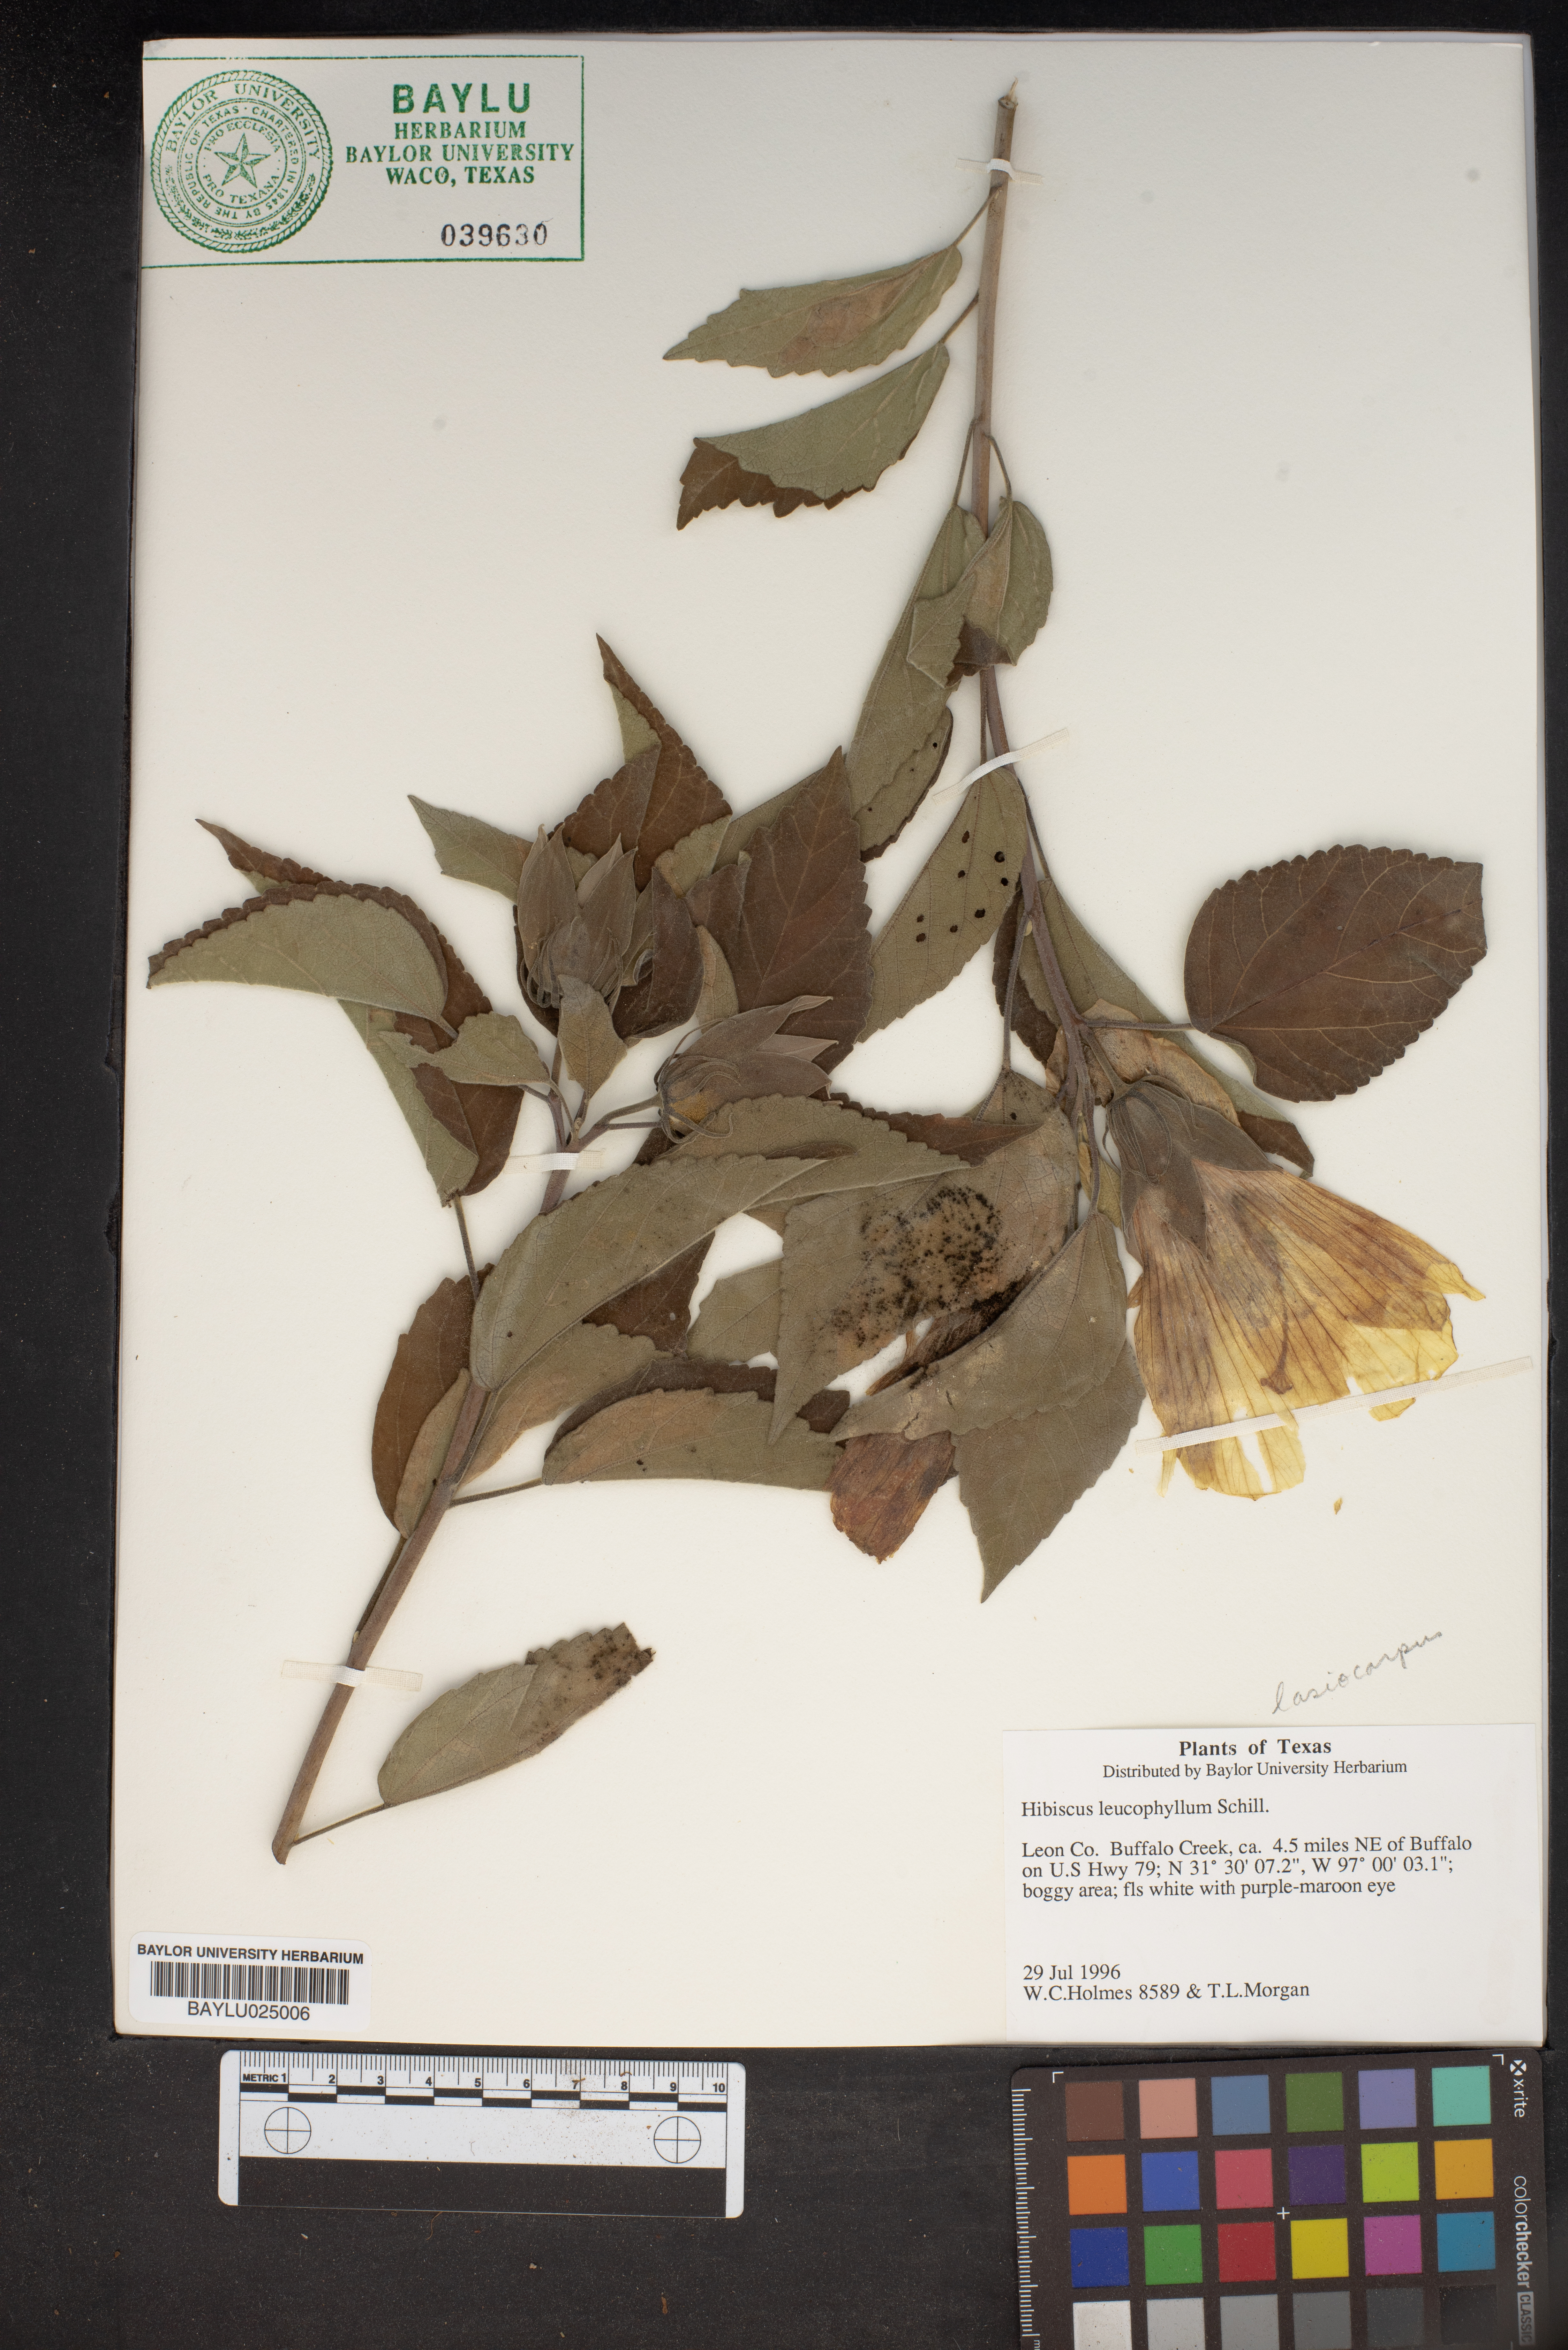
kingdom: Plantae
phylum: Tracheophyta
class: Magnoliopsida
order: Malvales
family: Malvaceae
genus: Hibiscus
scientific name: Hibiscus moscheutos
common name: Common rose-mallow
